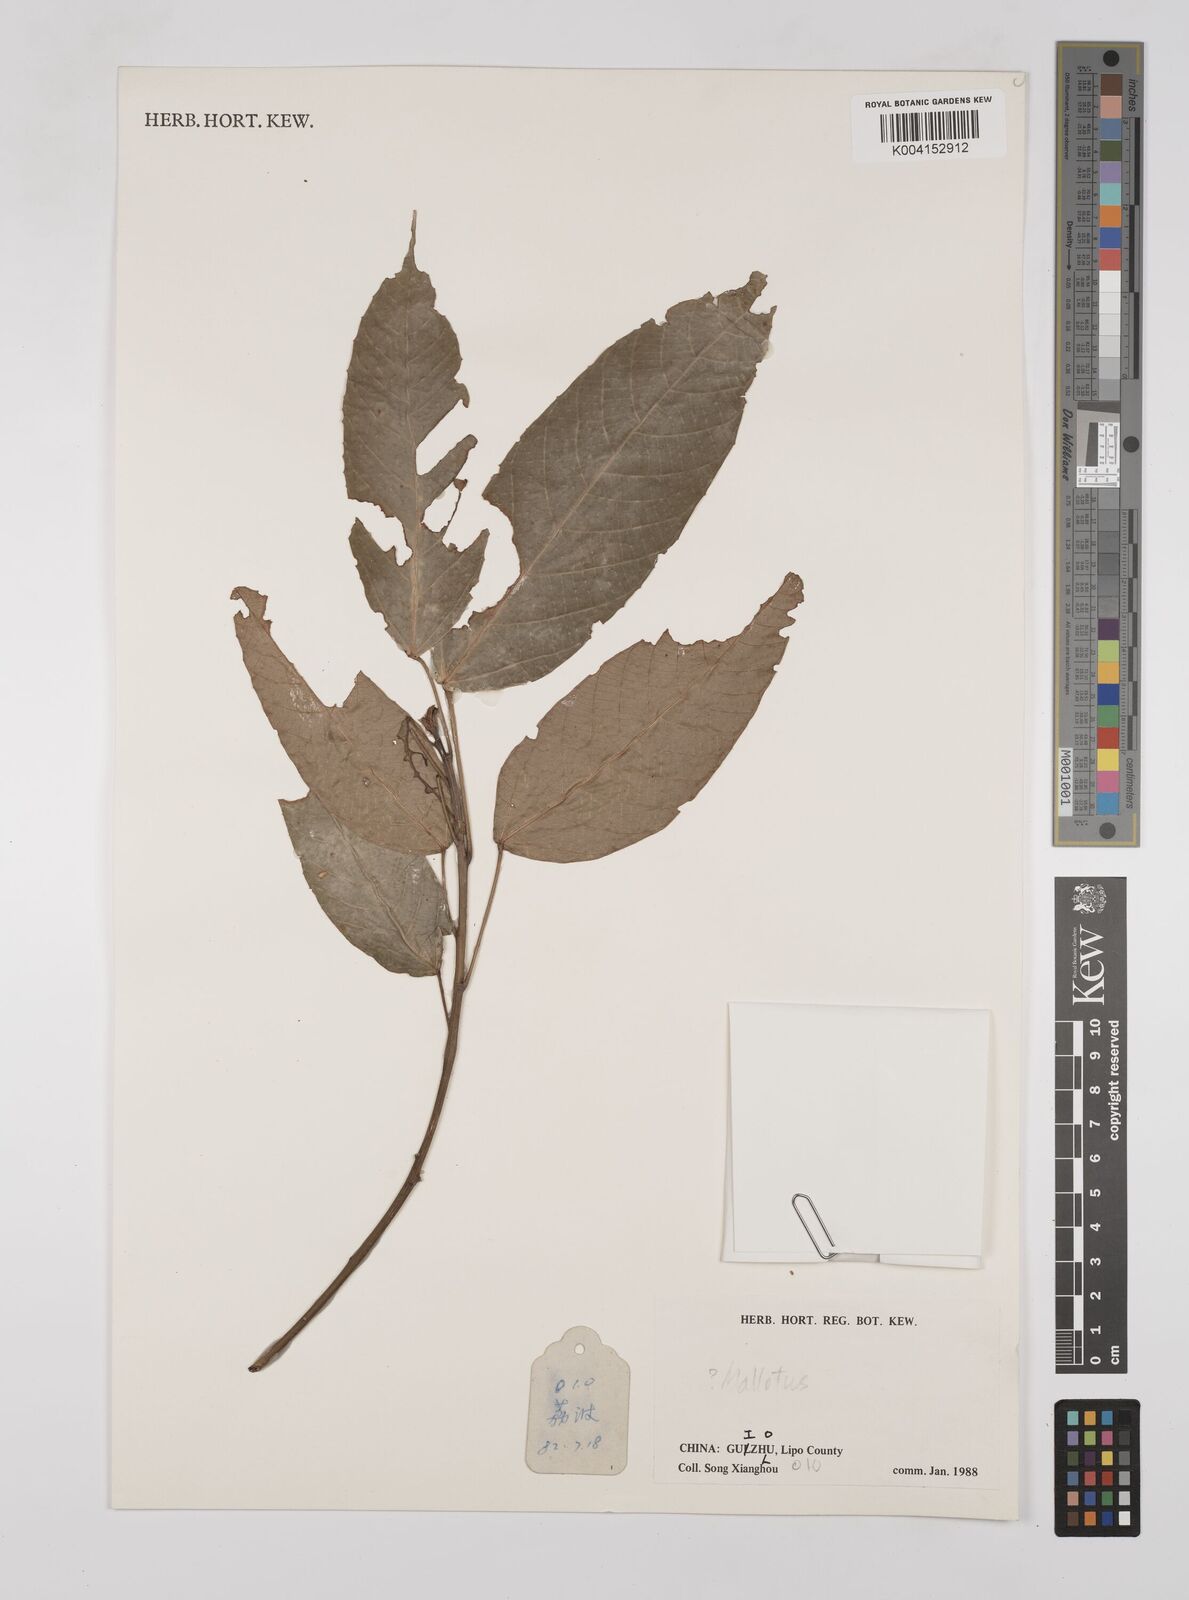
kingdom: Plantae
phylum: Tracheophyta
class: Magnoliopsida
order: Malpighiales
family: Euphorbiaceae
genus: Mallotus
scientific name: Mallotus
